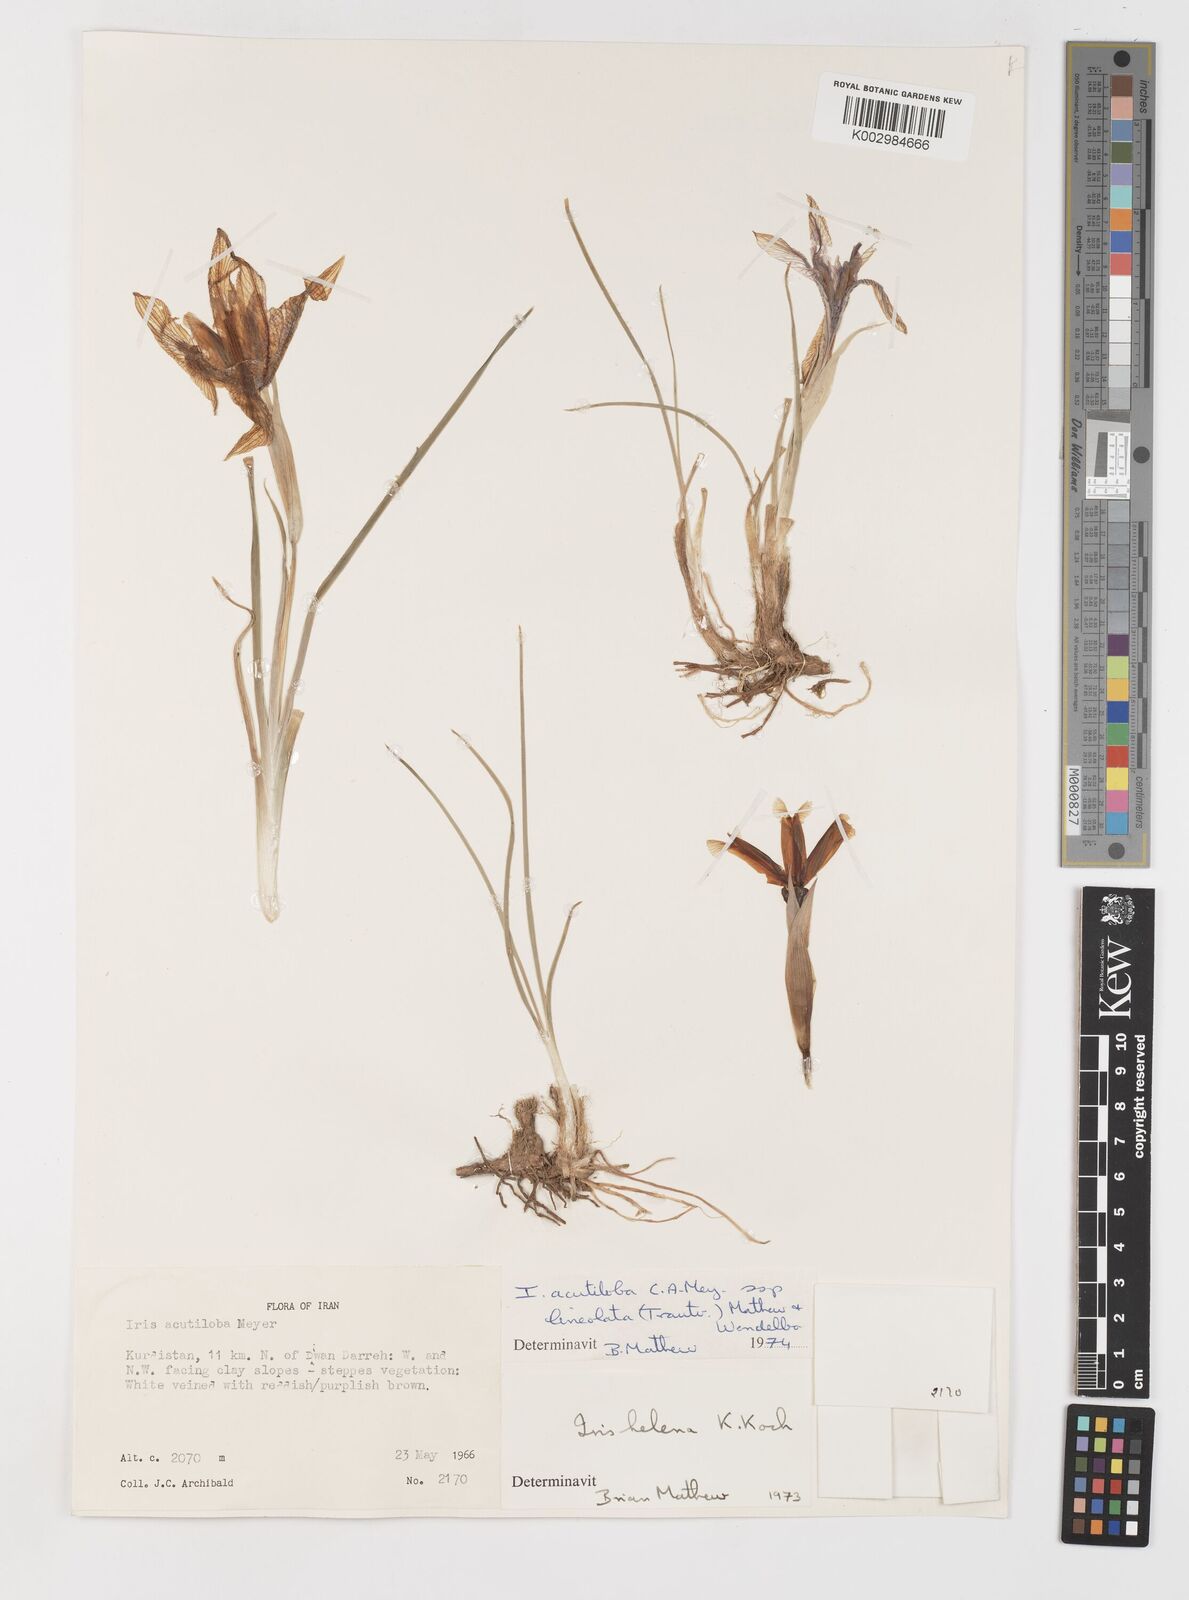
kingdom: Plantae
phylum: Tracheophyta
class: Liliopsida
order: Asparagales
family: Iridaceae
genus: Iris
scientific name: Iris acutiloba
